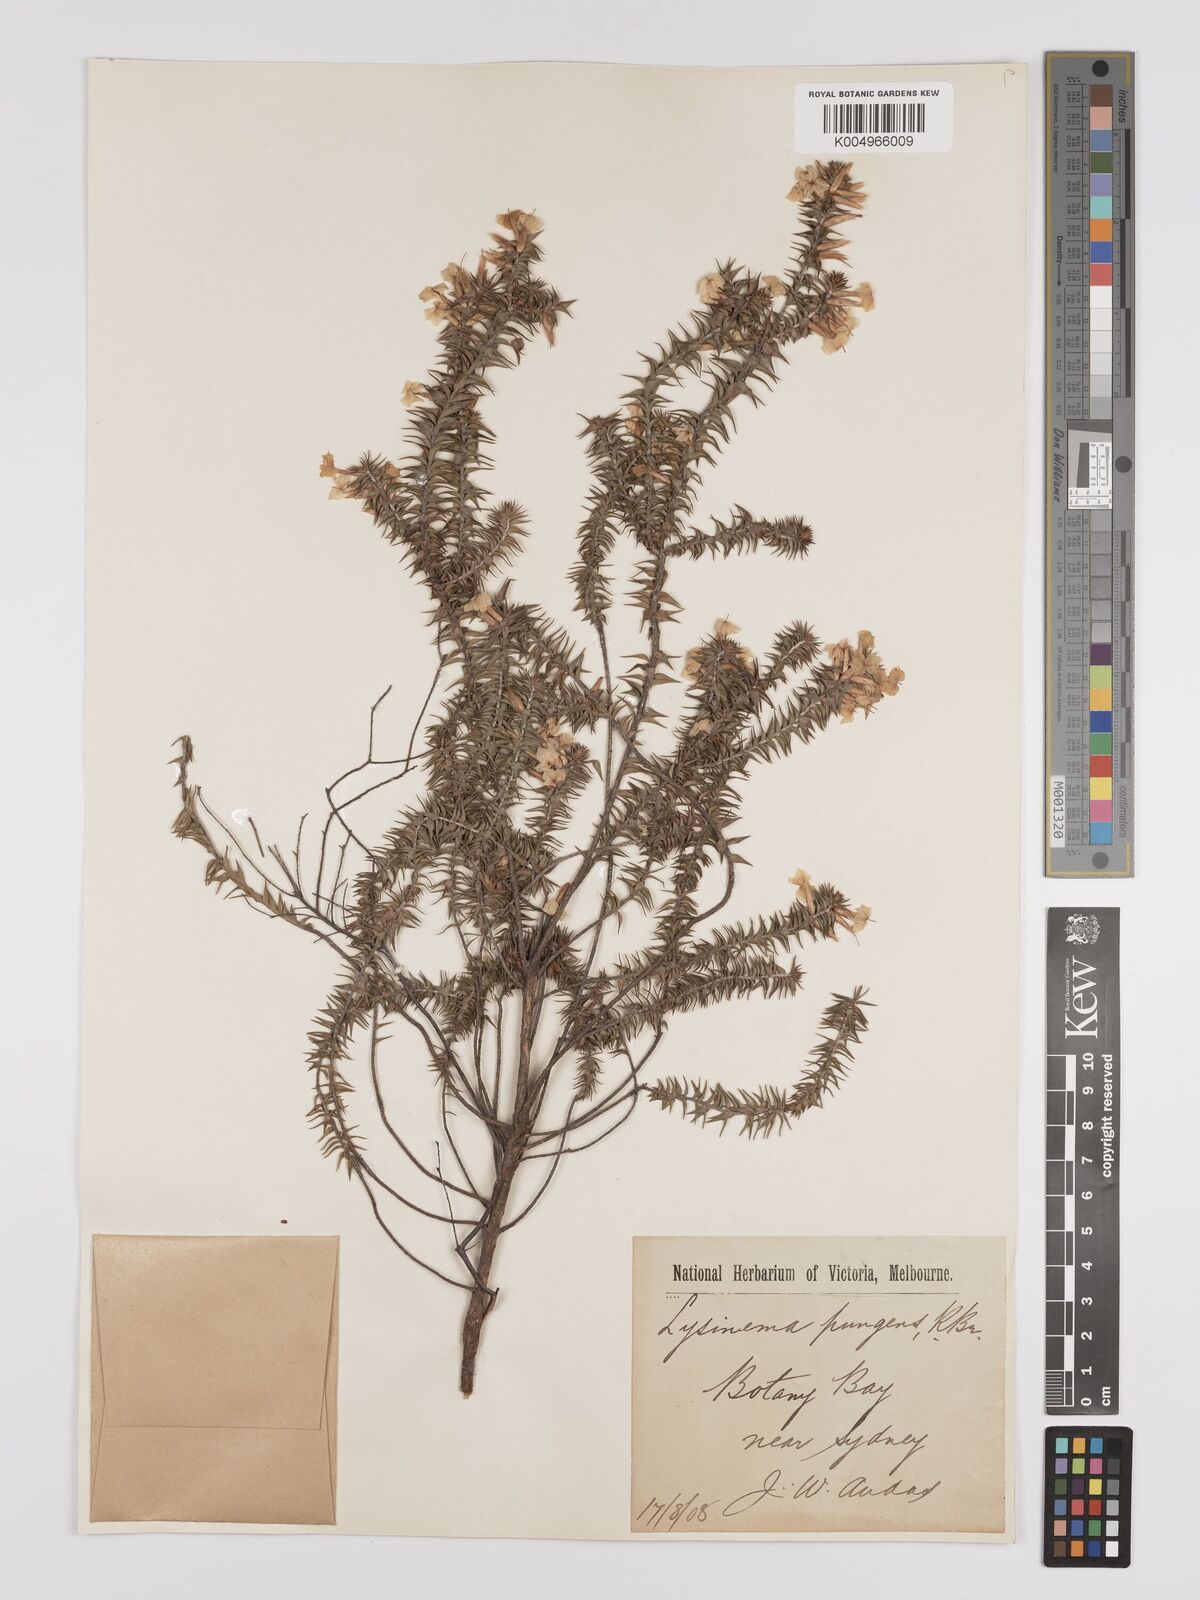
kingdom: Plantae
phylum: Tracheophyta
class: Magnoliopsida
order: Ericales
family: Ericaceae
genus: Woollsia
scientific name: Woollsia pungens
